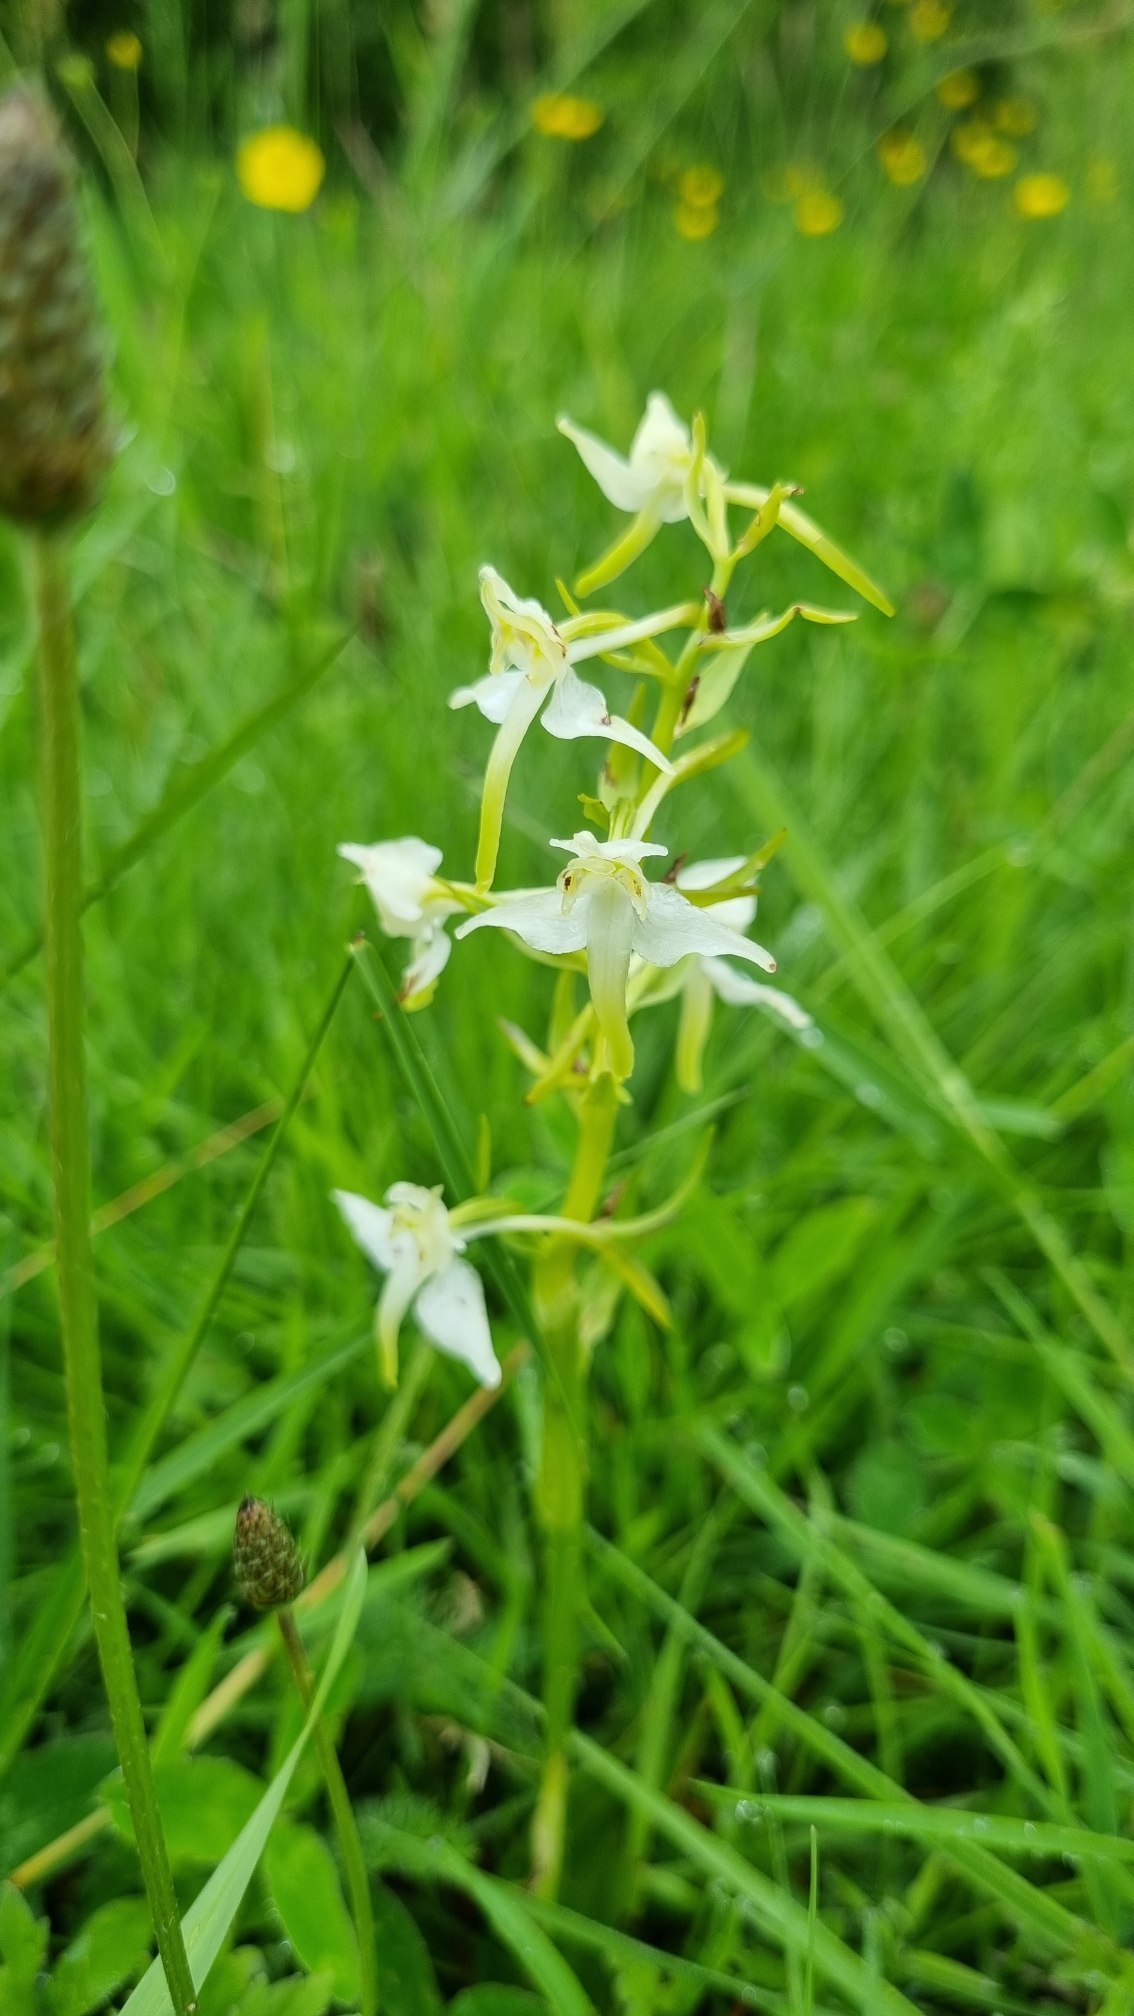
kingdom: Plantae
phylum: Tracheophyta
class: Liliopsida
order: Asparagales
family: Orchidaceae
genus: Platanthera
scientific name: Platanthera chlorantha
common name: Skov-gøgelilje
